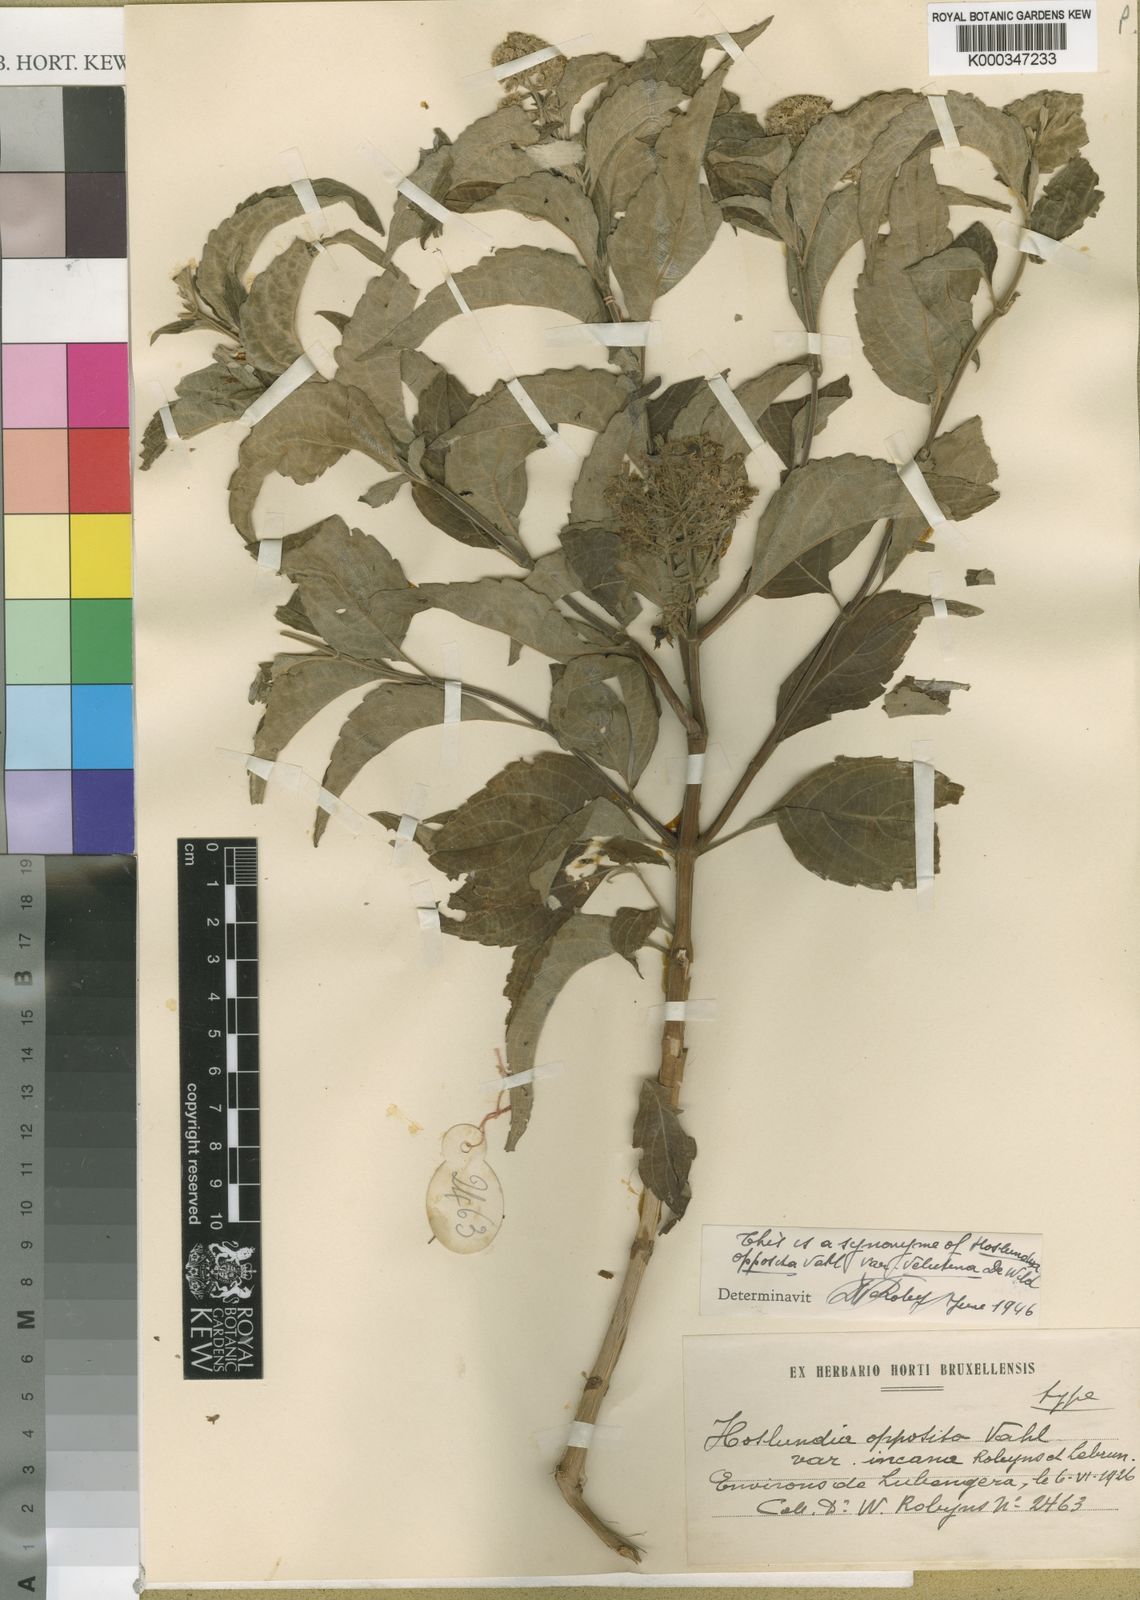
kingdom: Plantae
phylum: Tracheophyta
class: Magnoliopsida
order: Lamiales
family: Lamiaceae
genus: Hoslundia
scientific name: Hoslundia opposita
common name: Kamyuye
